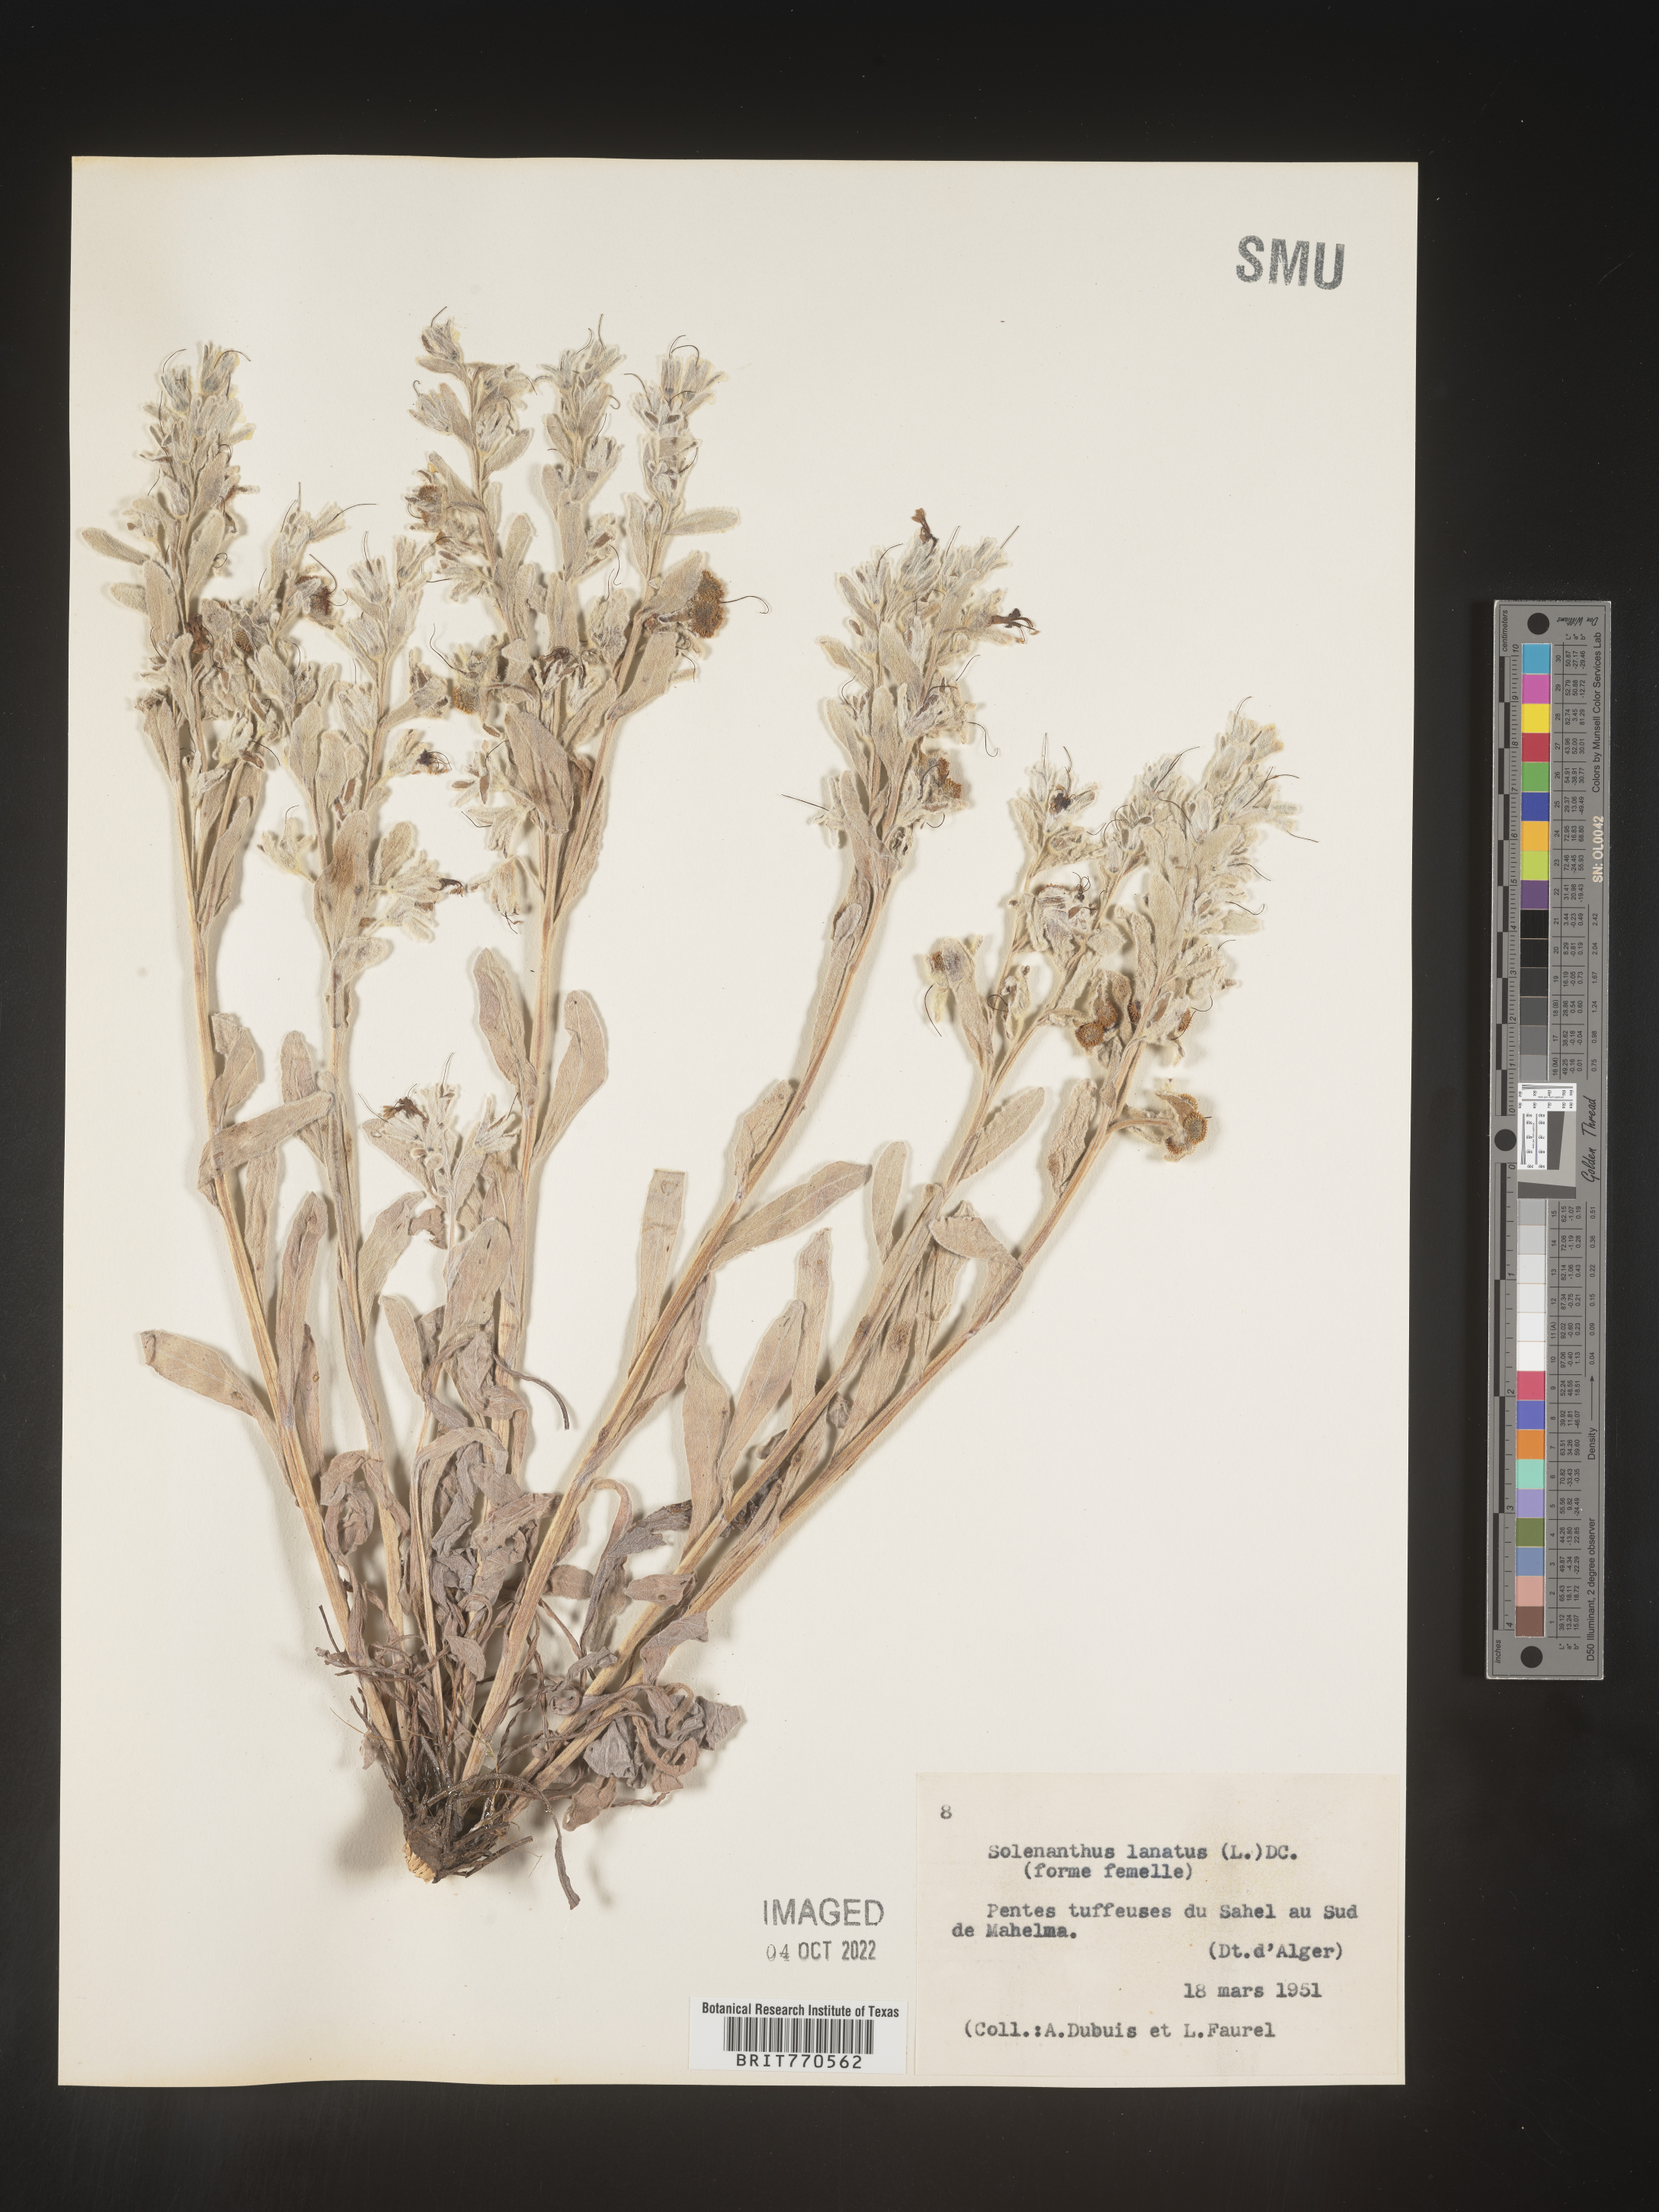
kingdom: Plantae
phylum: Tracheophyta
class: Magnoliopsida
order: Boraginales
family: Boraginaceae
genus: Solenanthus
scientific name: Solenanthus
